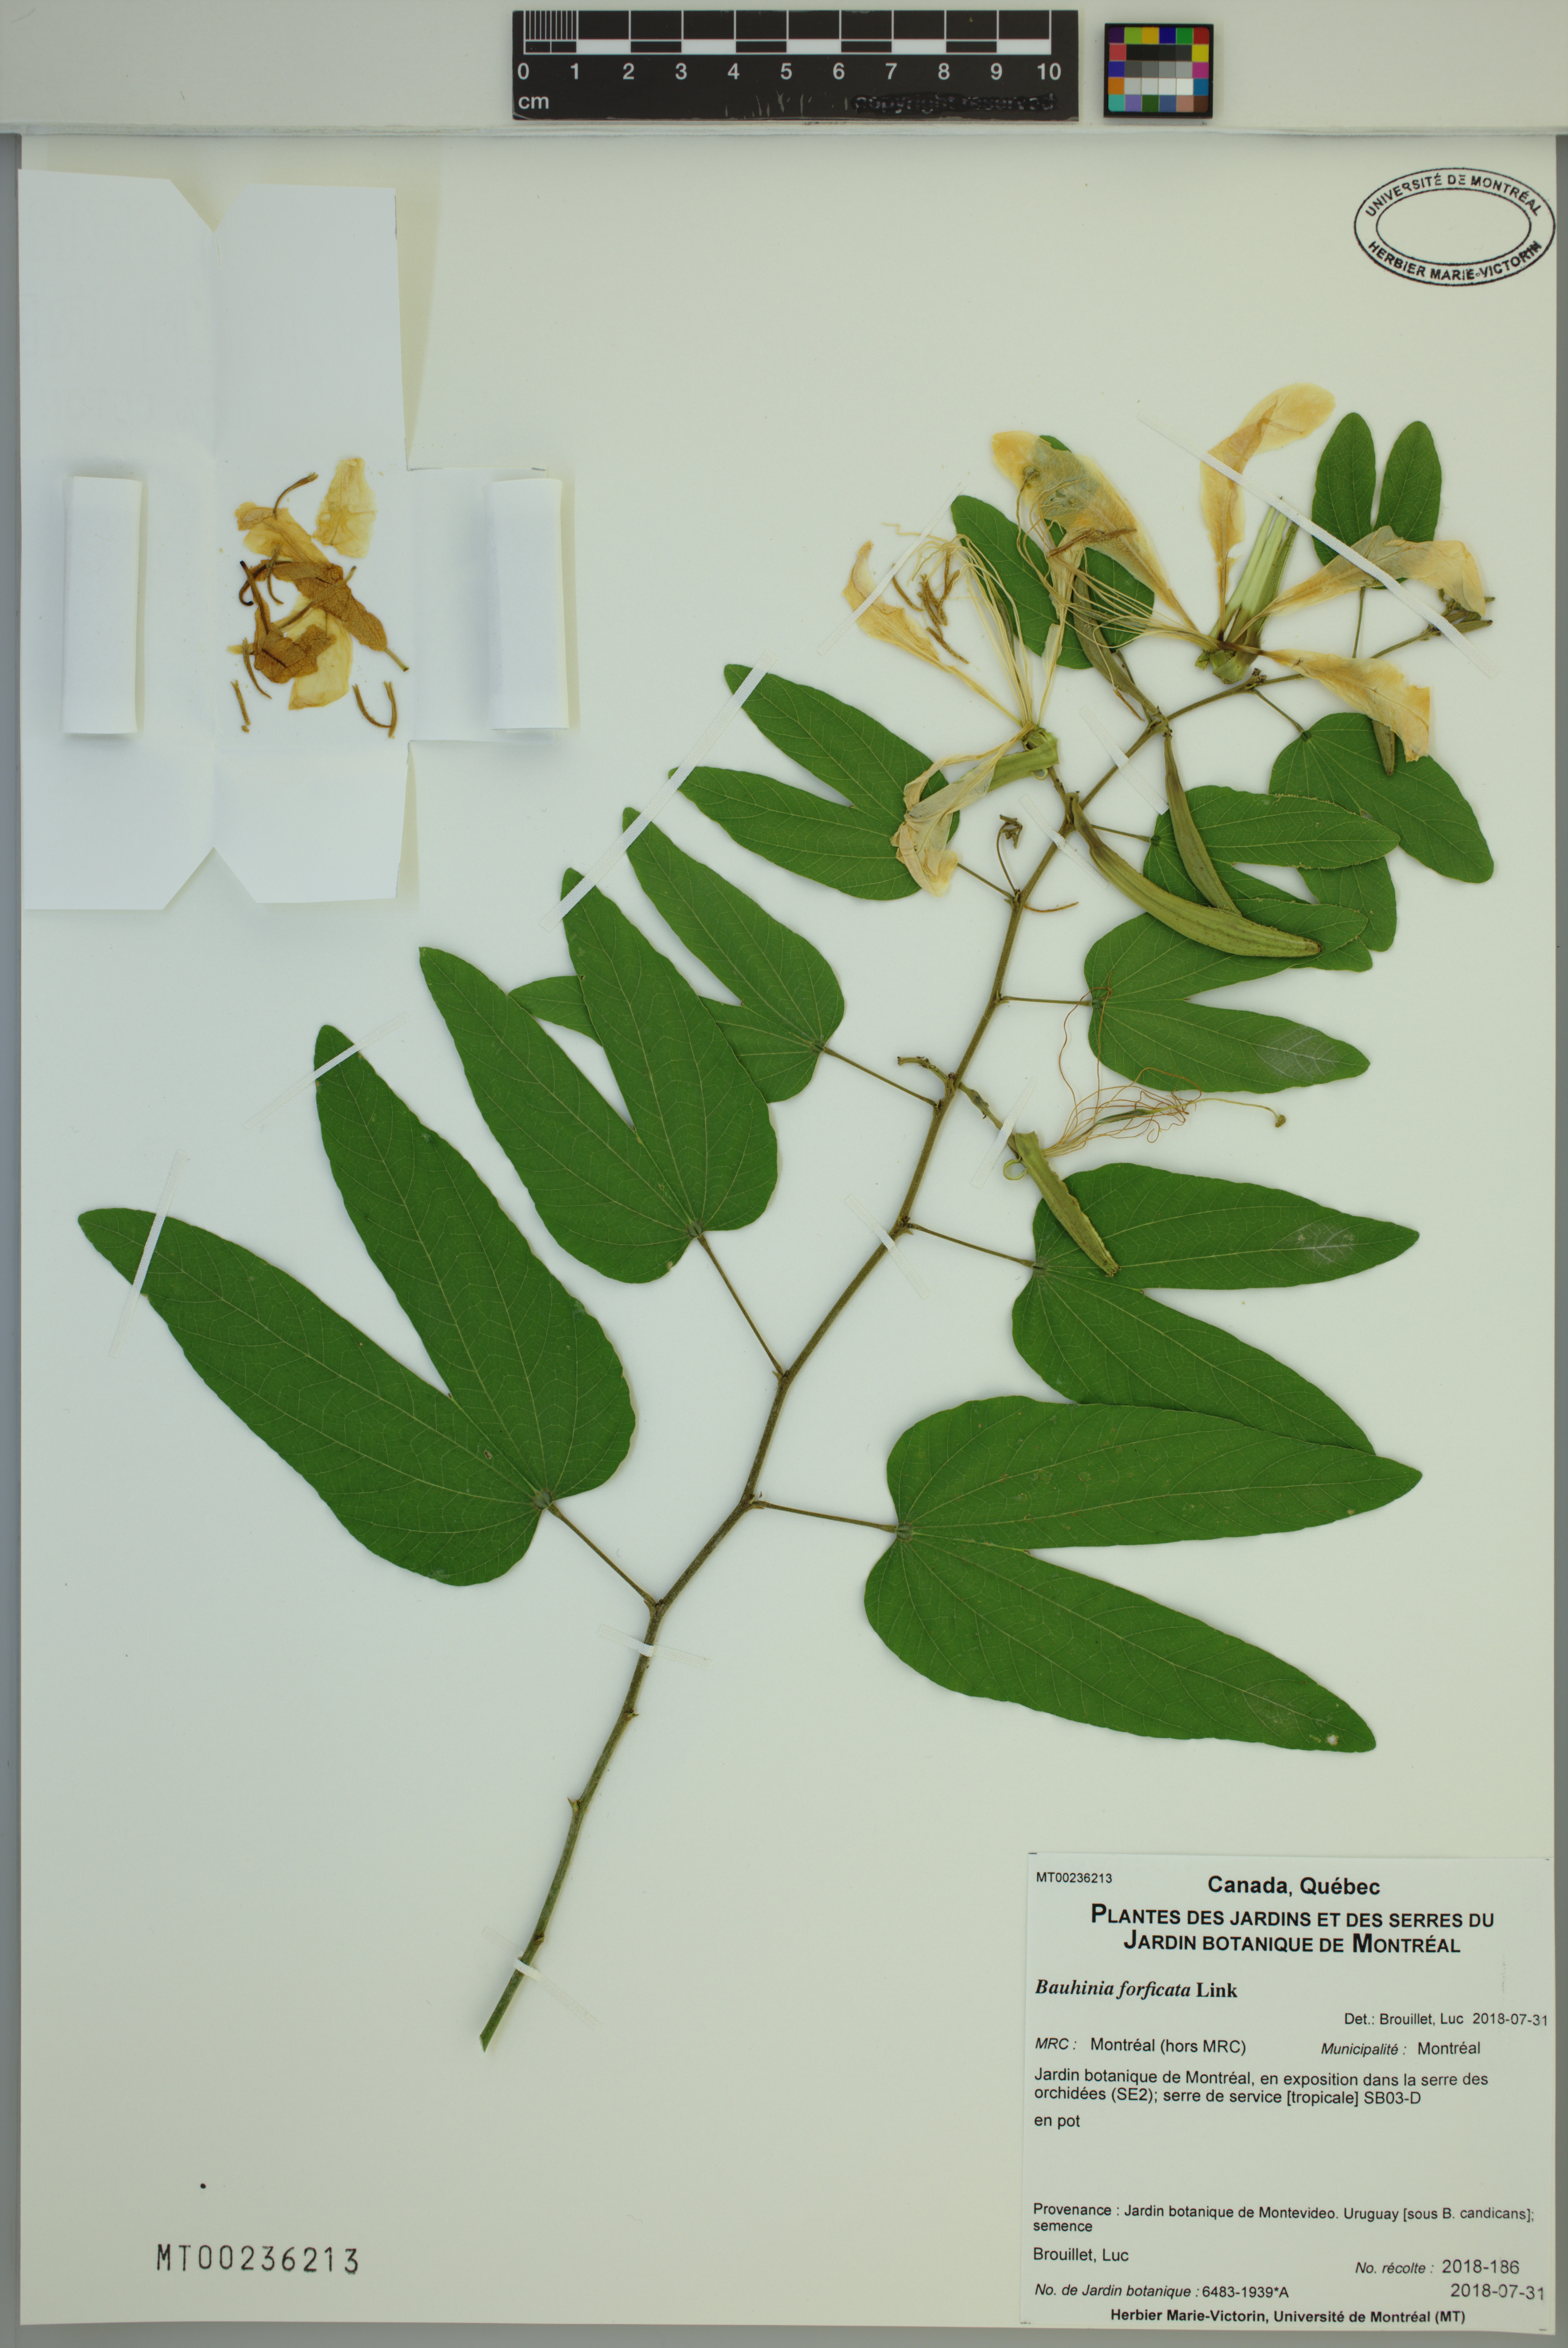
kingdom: Plantae
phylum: Tracheophyta
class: Magnoliopsida
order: Fabales
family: Fabaceae
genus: Bauhinia
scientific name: Bauhinia forficata
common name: Orchid tree
